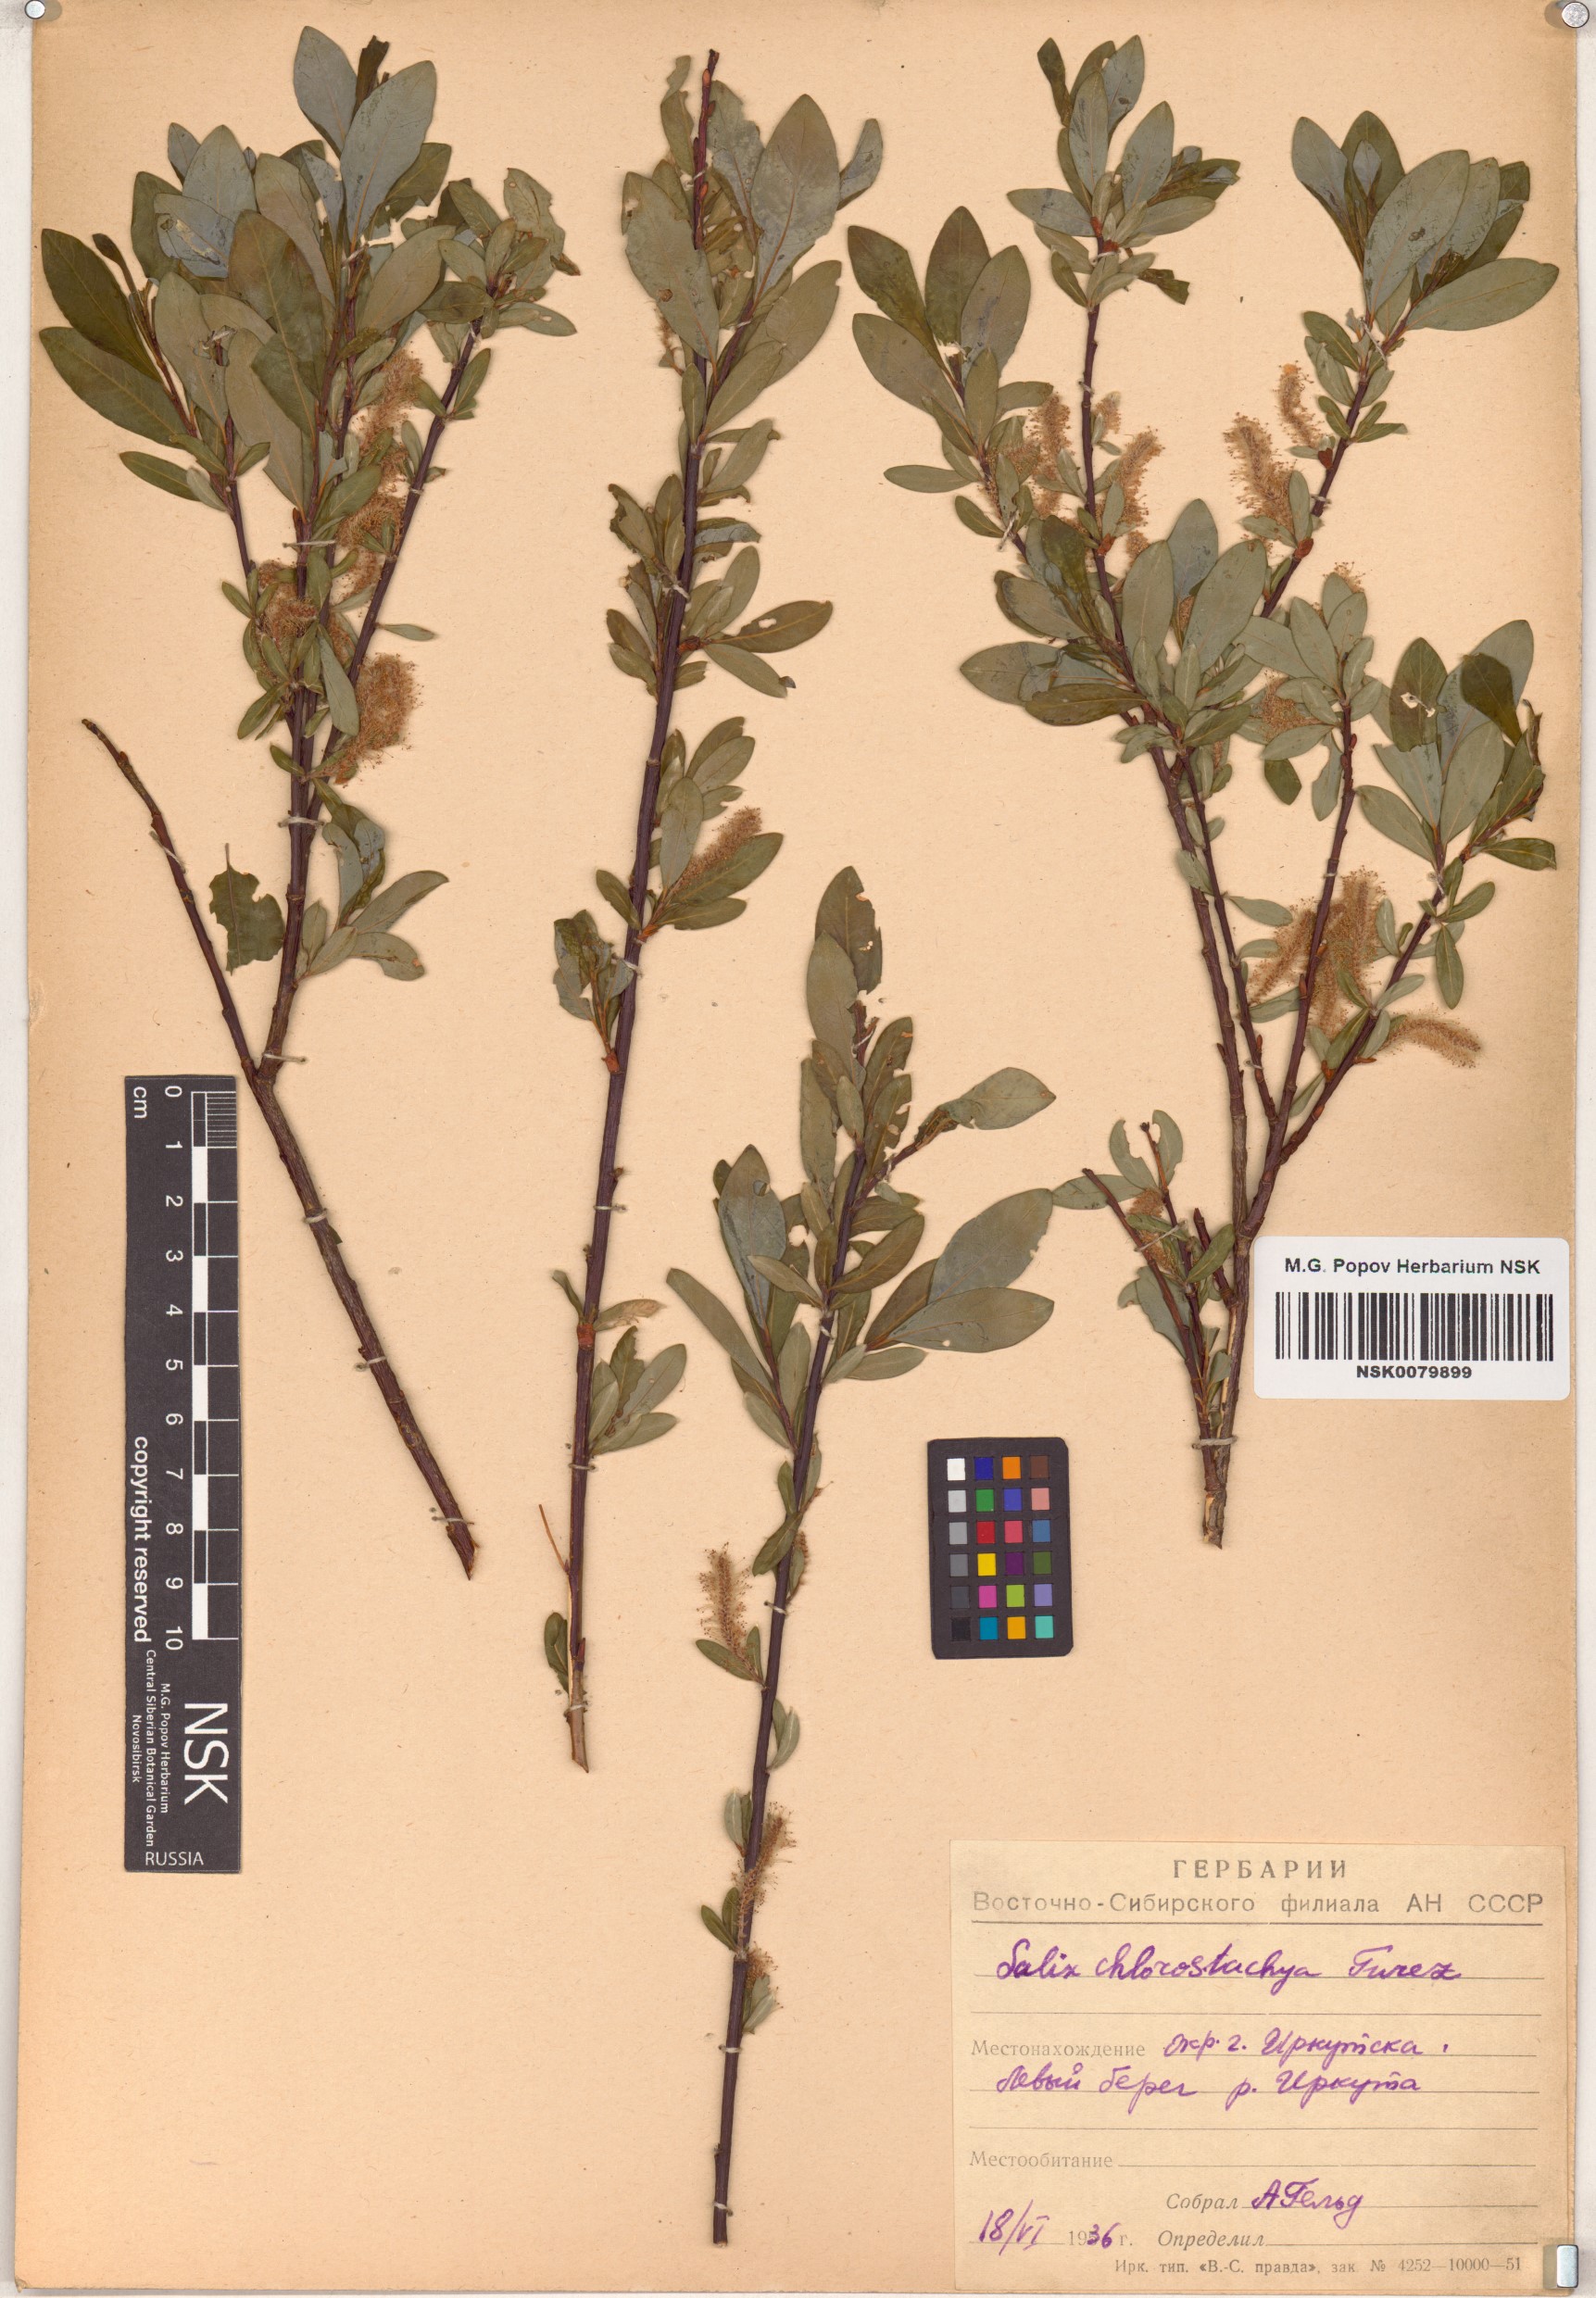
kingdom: Plantae
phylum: Tracheophyta
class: Magnoliopsida
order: Malpighiales
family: Salicaceae
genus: Salix
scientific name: Salix rhamnifolia
